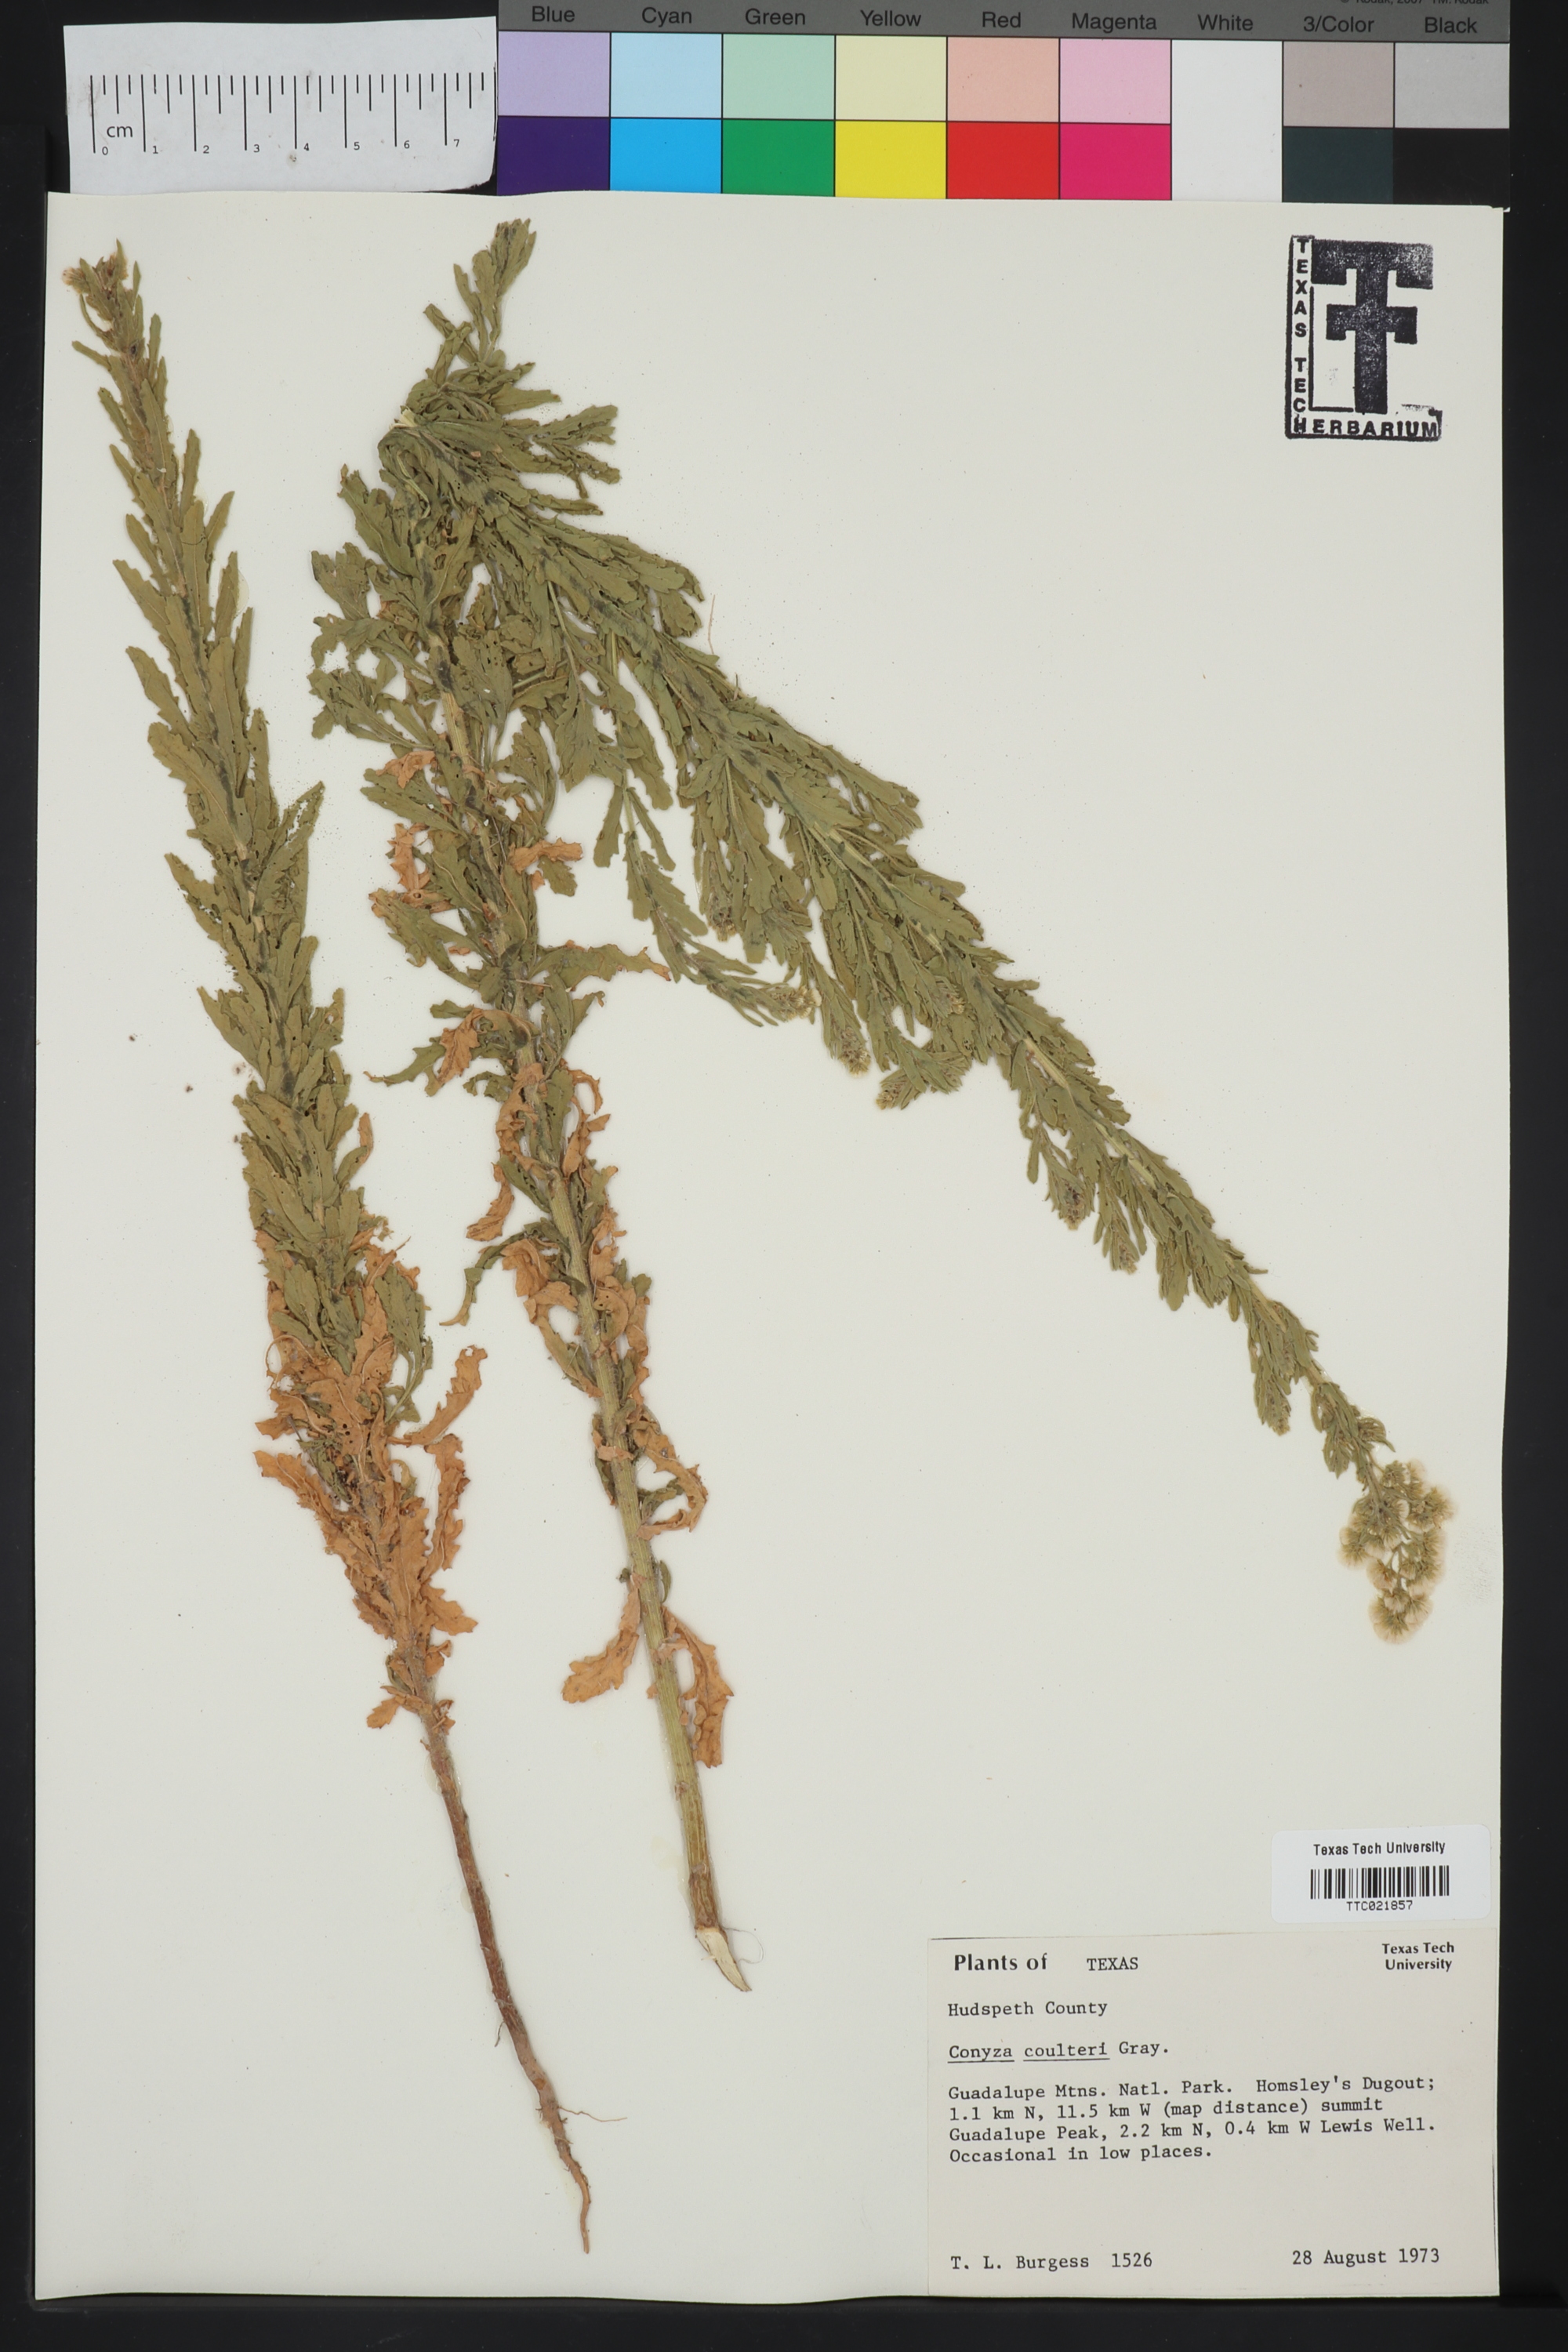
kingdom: Plantae
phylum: Tracheophyta
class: Magnoliopsida
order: Asterales
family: Asteraceae
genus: Laennecia
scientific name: Laennecia coulteri
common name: Coulter's woolwort
